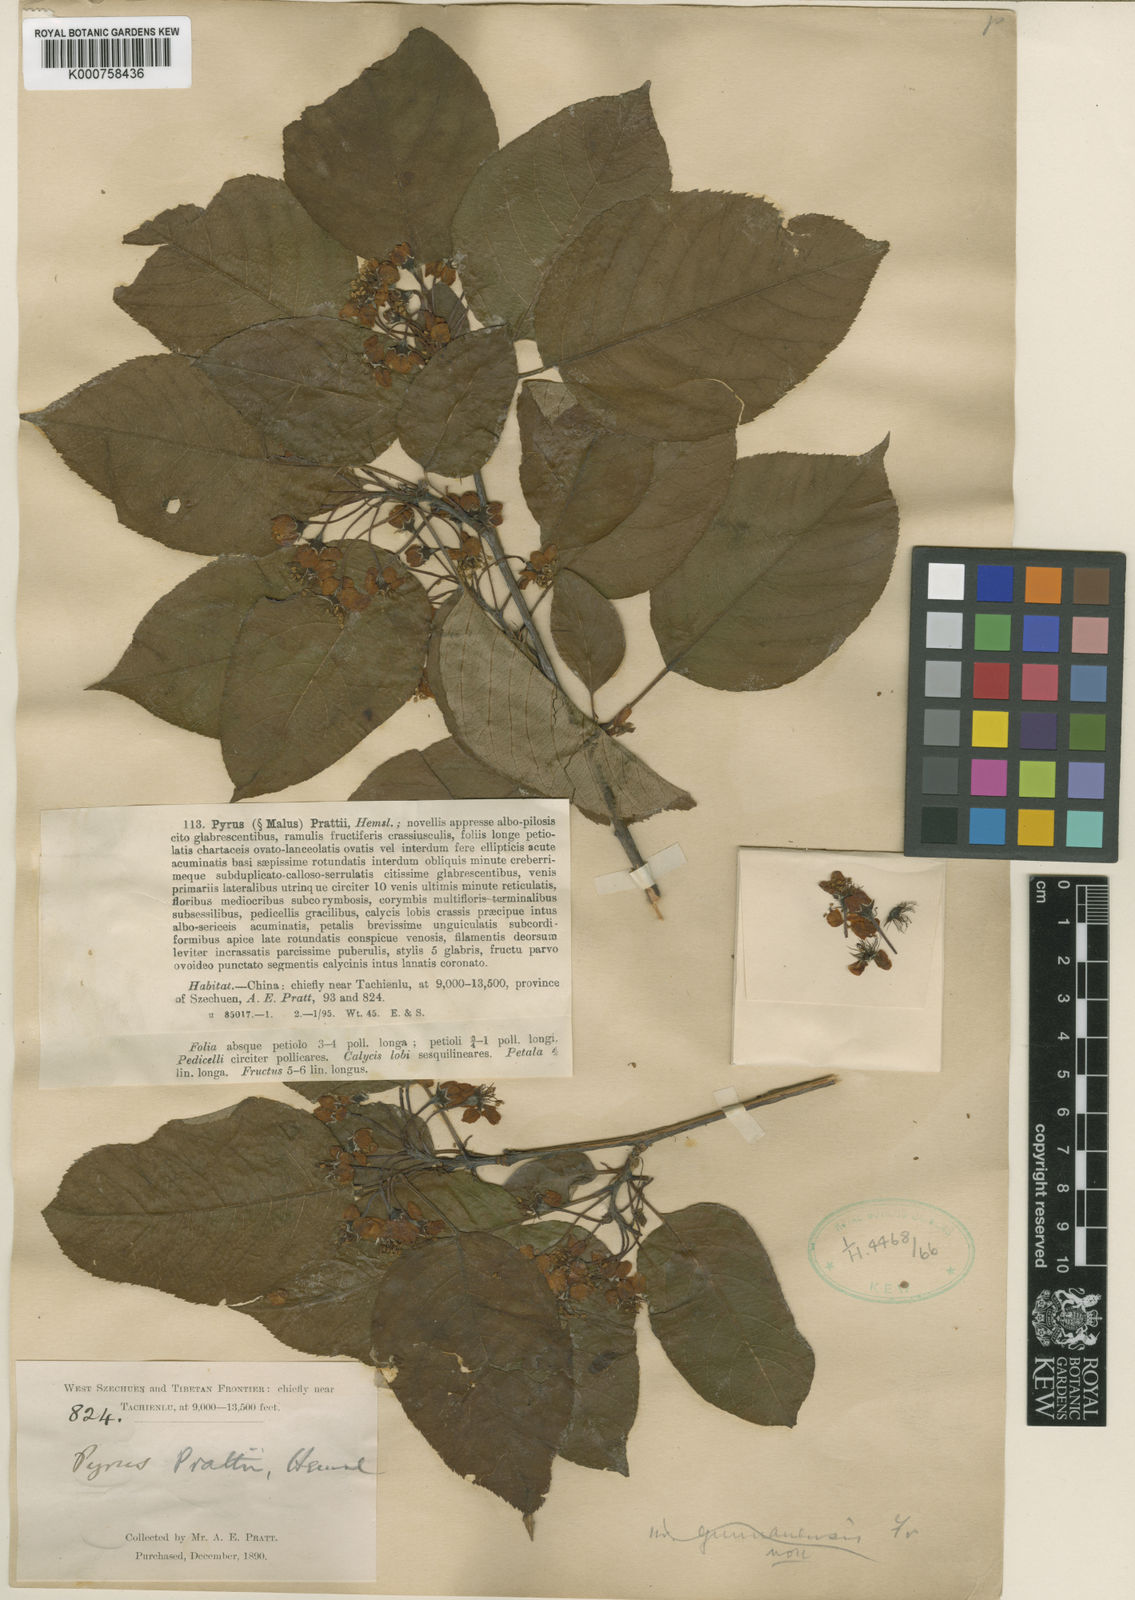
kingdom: Plantae
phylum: Tracheophyta
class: Magnoliopsida
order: Rosales
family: Rosaceae
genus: Malus
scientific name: Malus prattii
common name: Pratt apple
